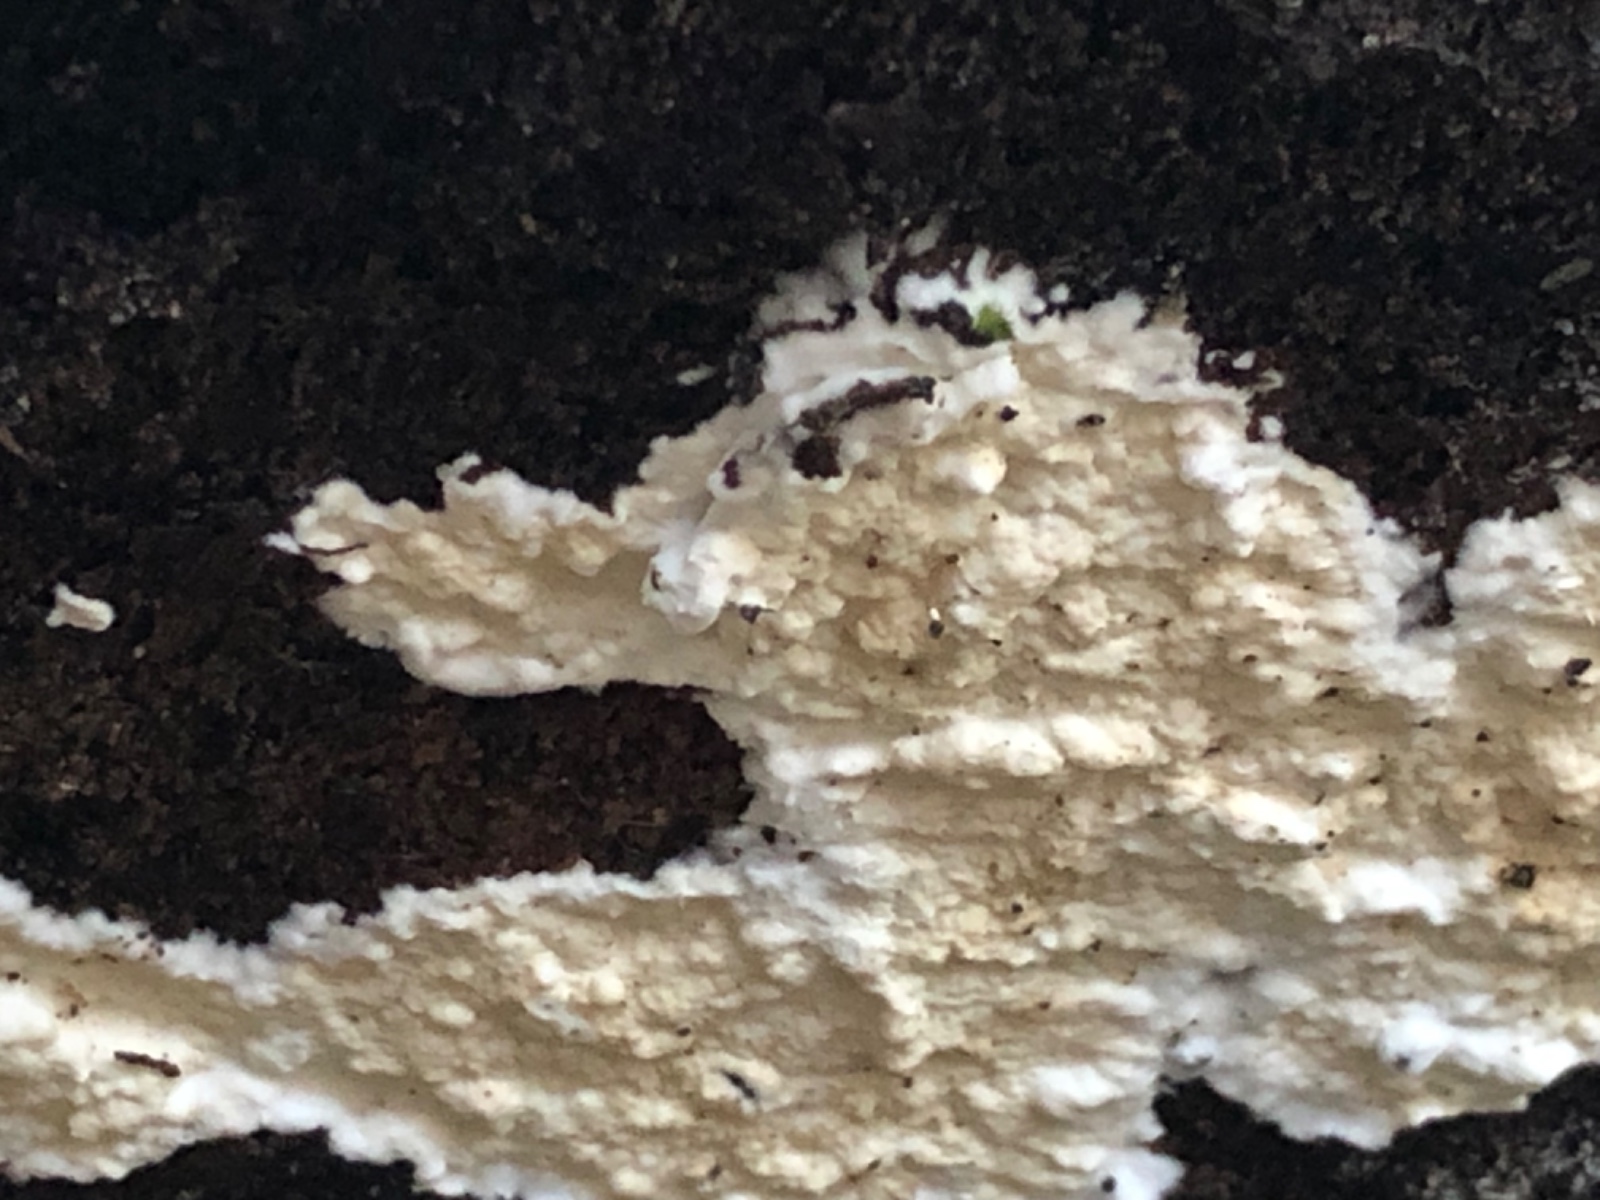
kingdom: Fungi
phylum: Basidiomycota
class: Agaricomycetes
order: Corticiales
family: Corticiaceae
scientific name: Corticiaceae
